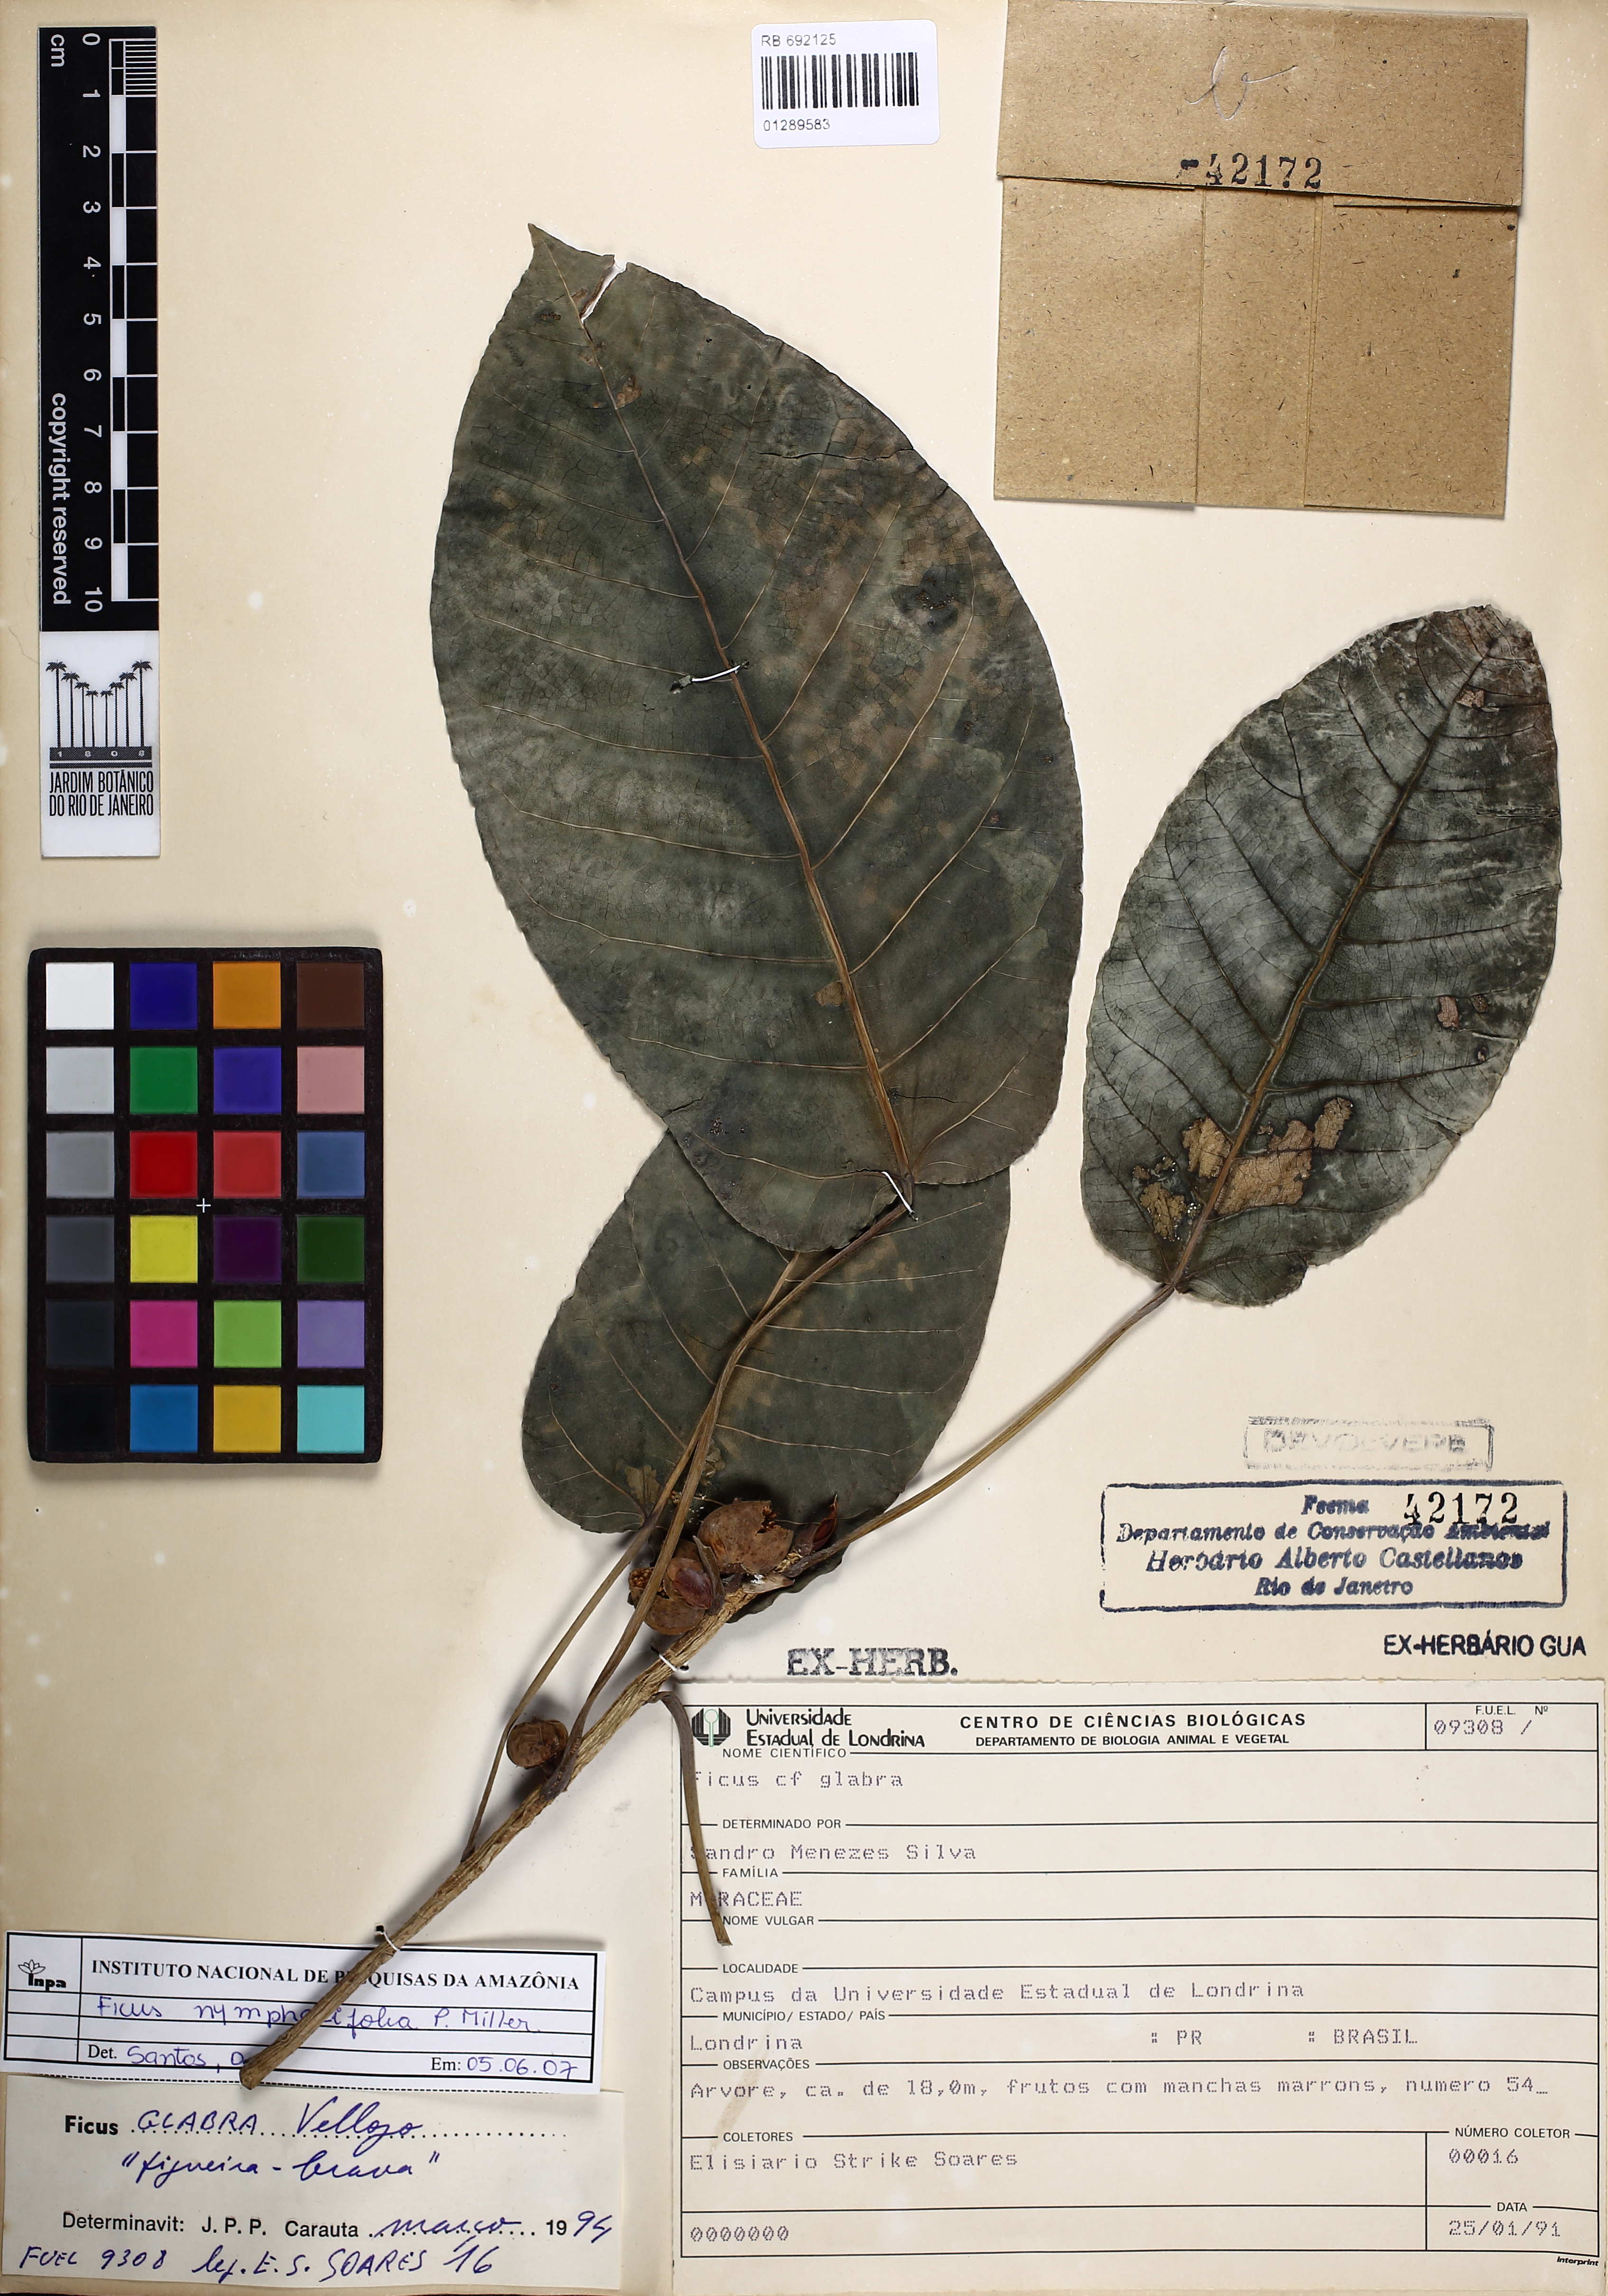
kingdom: Plantae
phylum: Tracheophyta
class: Magnoliopsida
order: Rosales
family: Moraceae
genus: Ficus
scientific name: Ficus eximia
